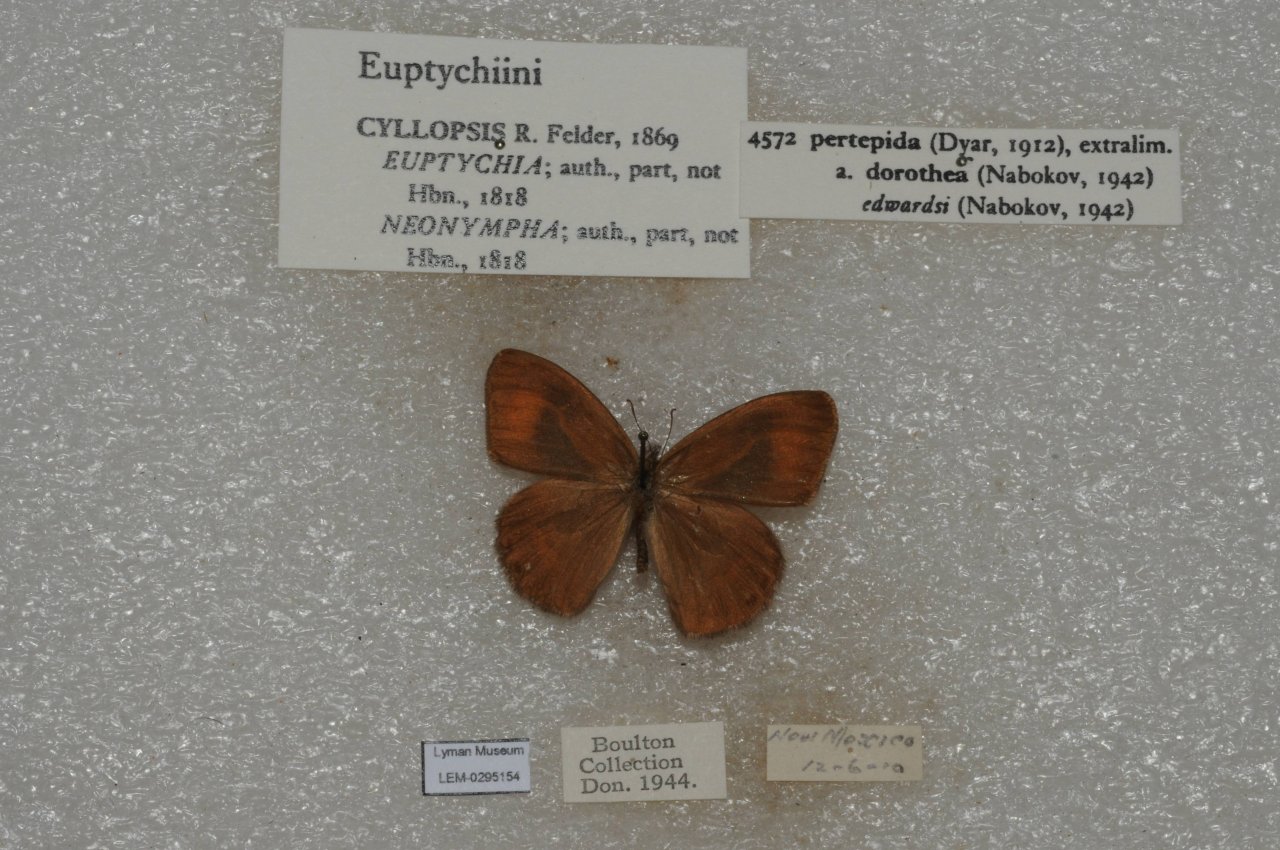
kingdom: Animalia
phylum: Arthropoda
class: Insecta
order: Lepidoptera
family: Nymphalidae
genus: Euptychia
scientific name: Euptychia Cyllopsis pertepida
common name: Canyonland Satyr
